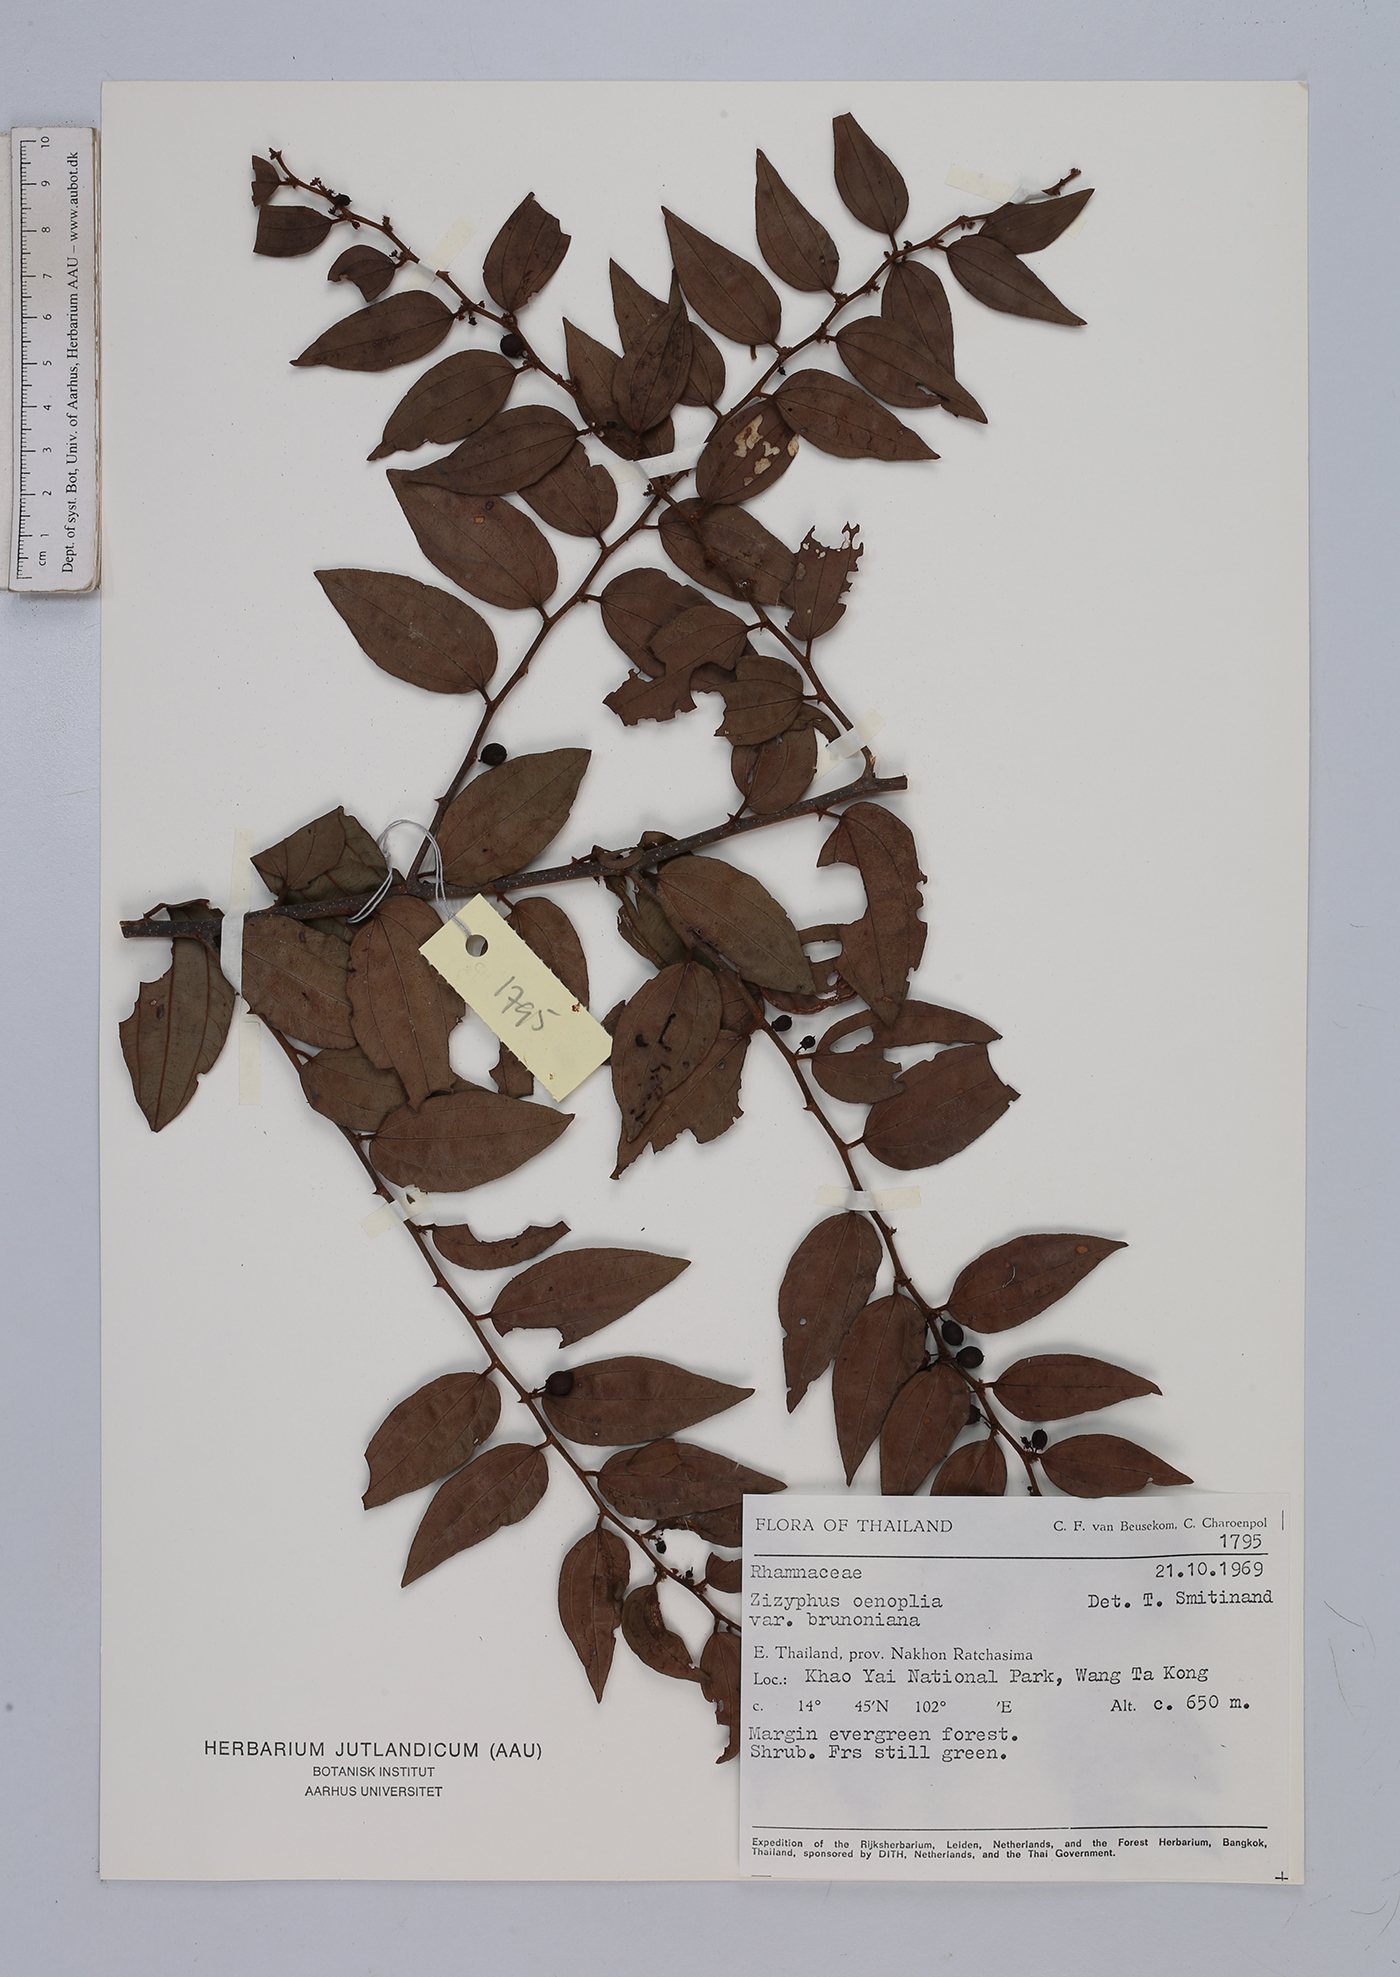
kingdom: Plantae
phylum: Tracheophyta
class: Magnoliopsida
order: Rosales
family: Rhamnaceae
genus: Ziziphus
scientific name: Ziziphus oenopolia
